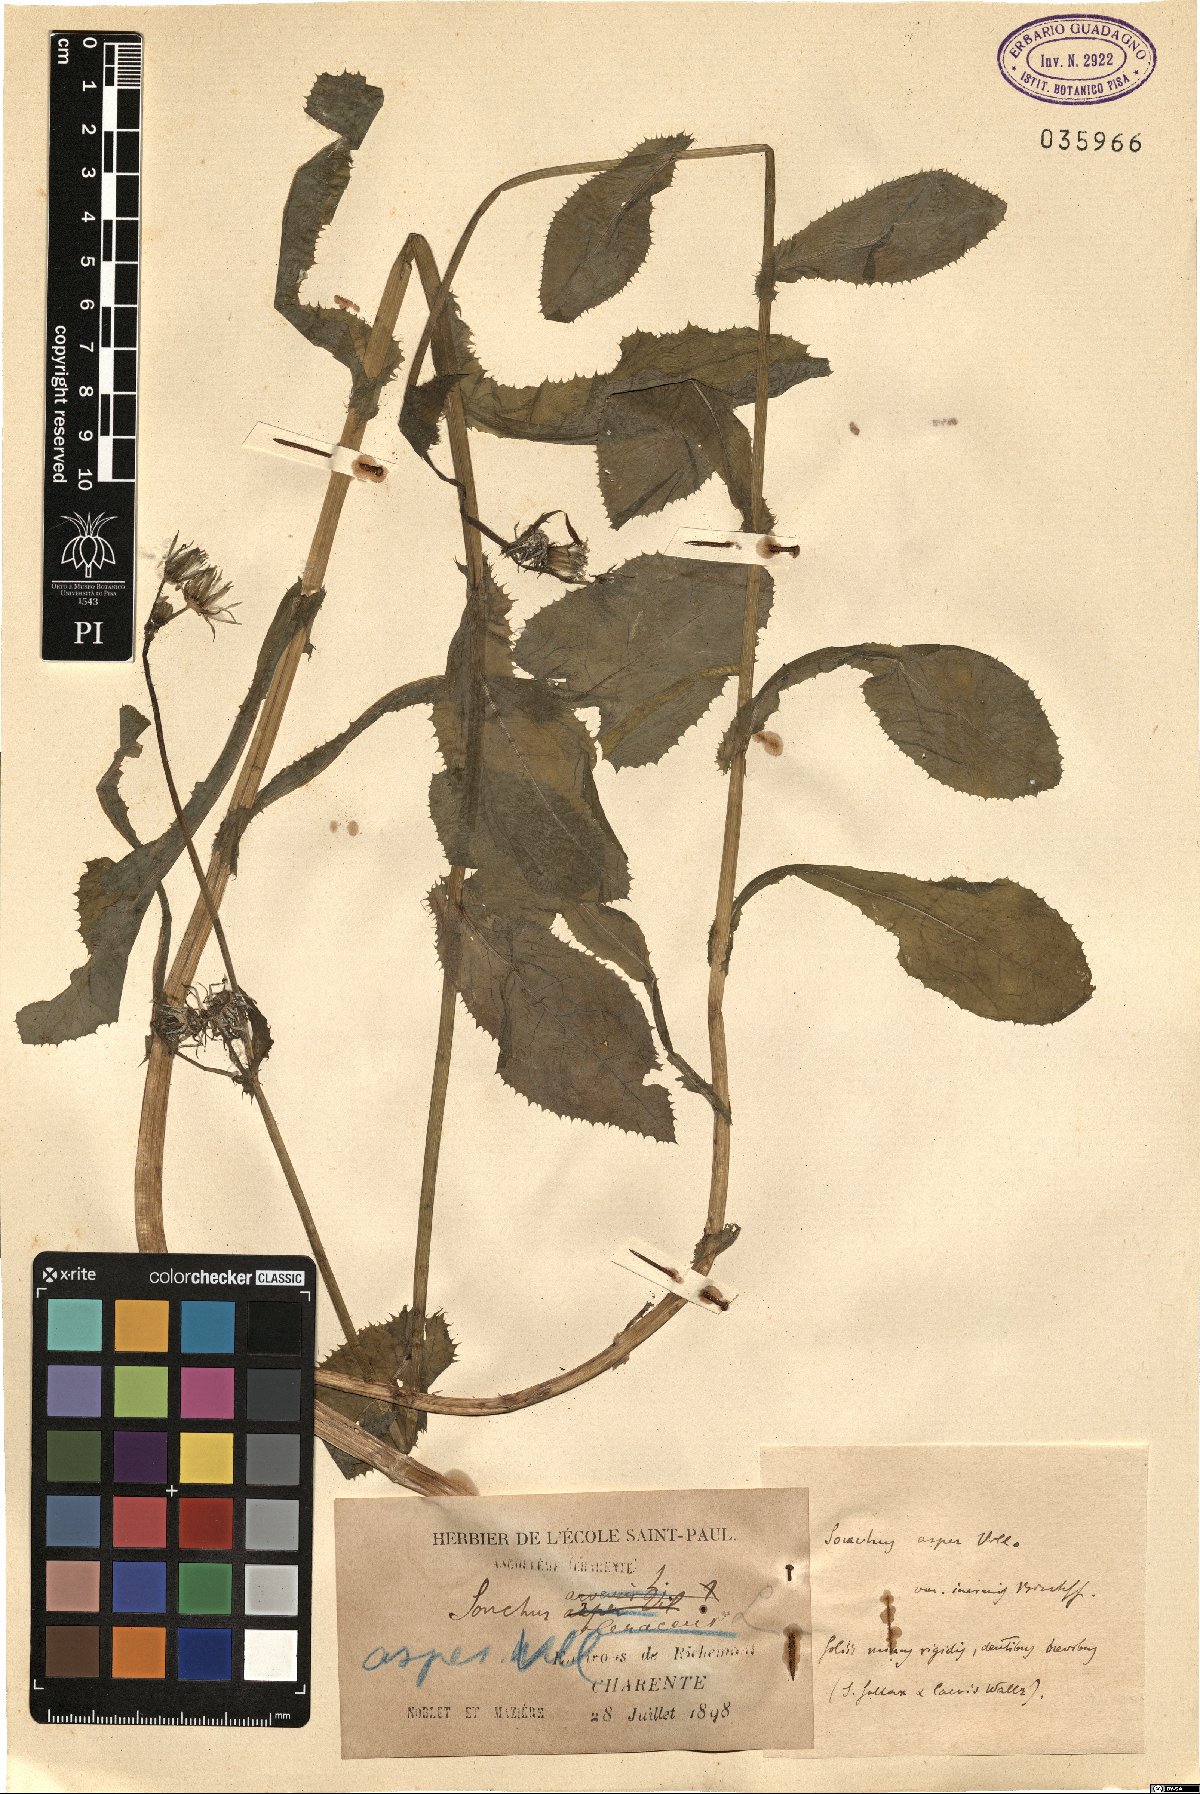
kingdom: Plantae
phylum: Tracheophyta
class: Magnoliopsida
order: Asterales
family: Asteraceae
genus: Sonchus
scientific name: Sonchus asper
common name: Prickly sow-thistle
